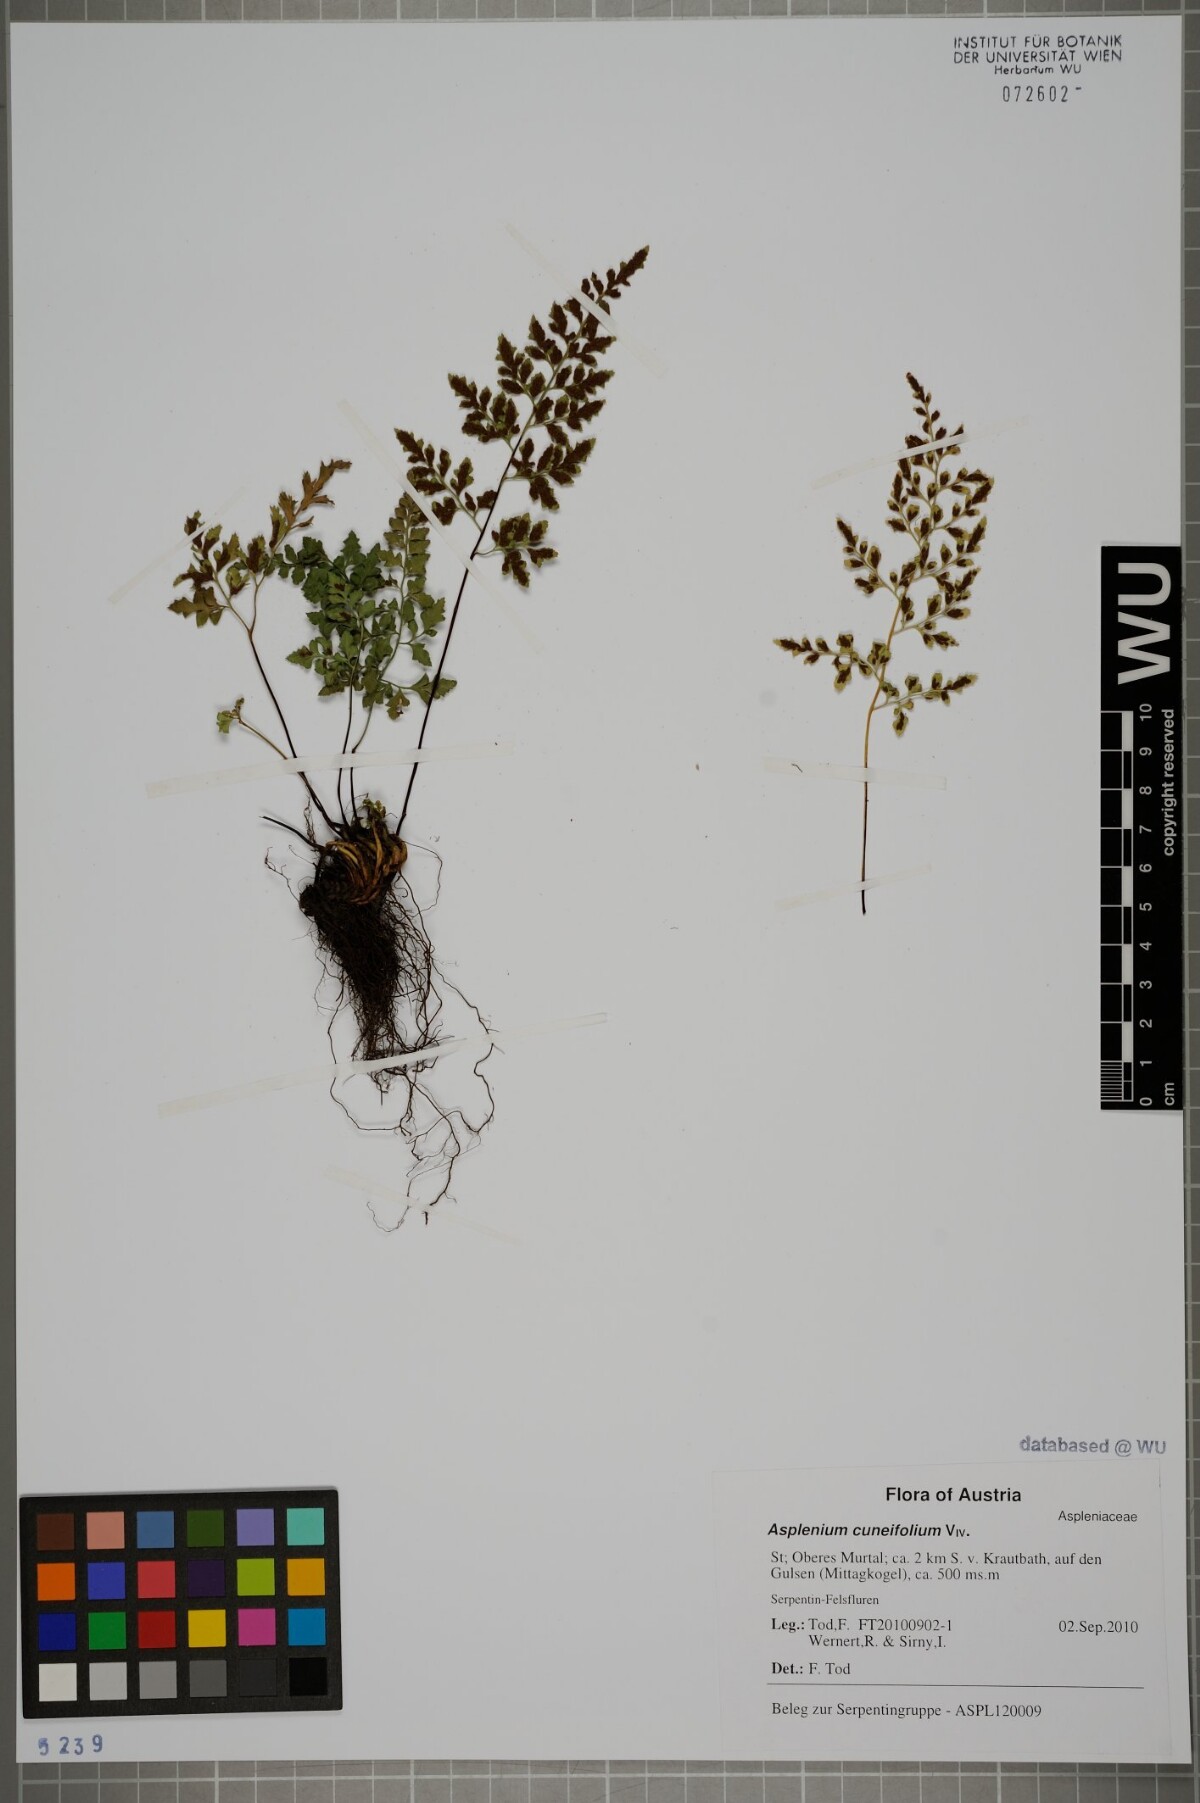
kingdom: Plantae
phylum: Tracheophyta
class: Polypodiopsida
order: Polypodiales
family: Aspleniaceae
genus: Asplenium
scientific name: Asplenium cuneifolium
